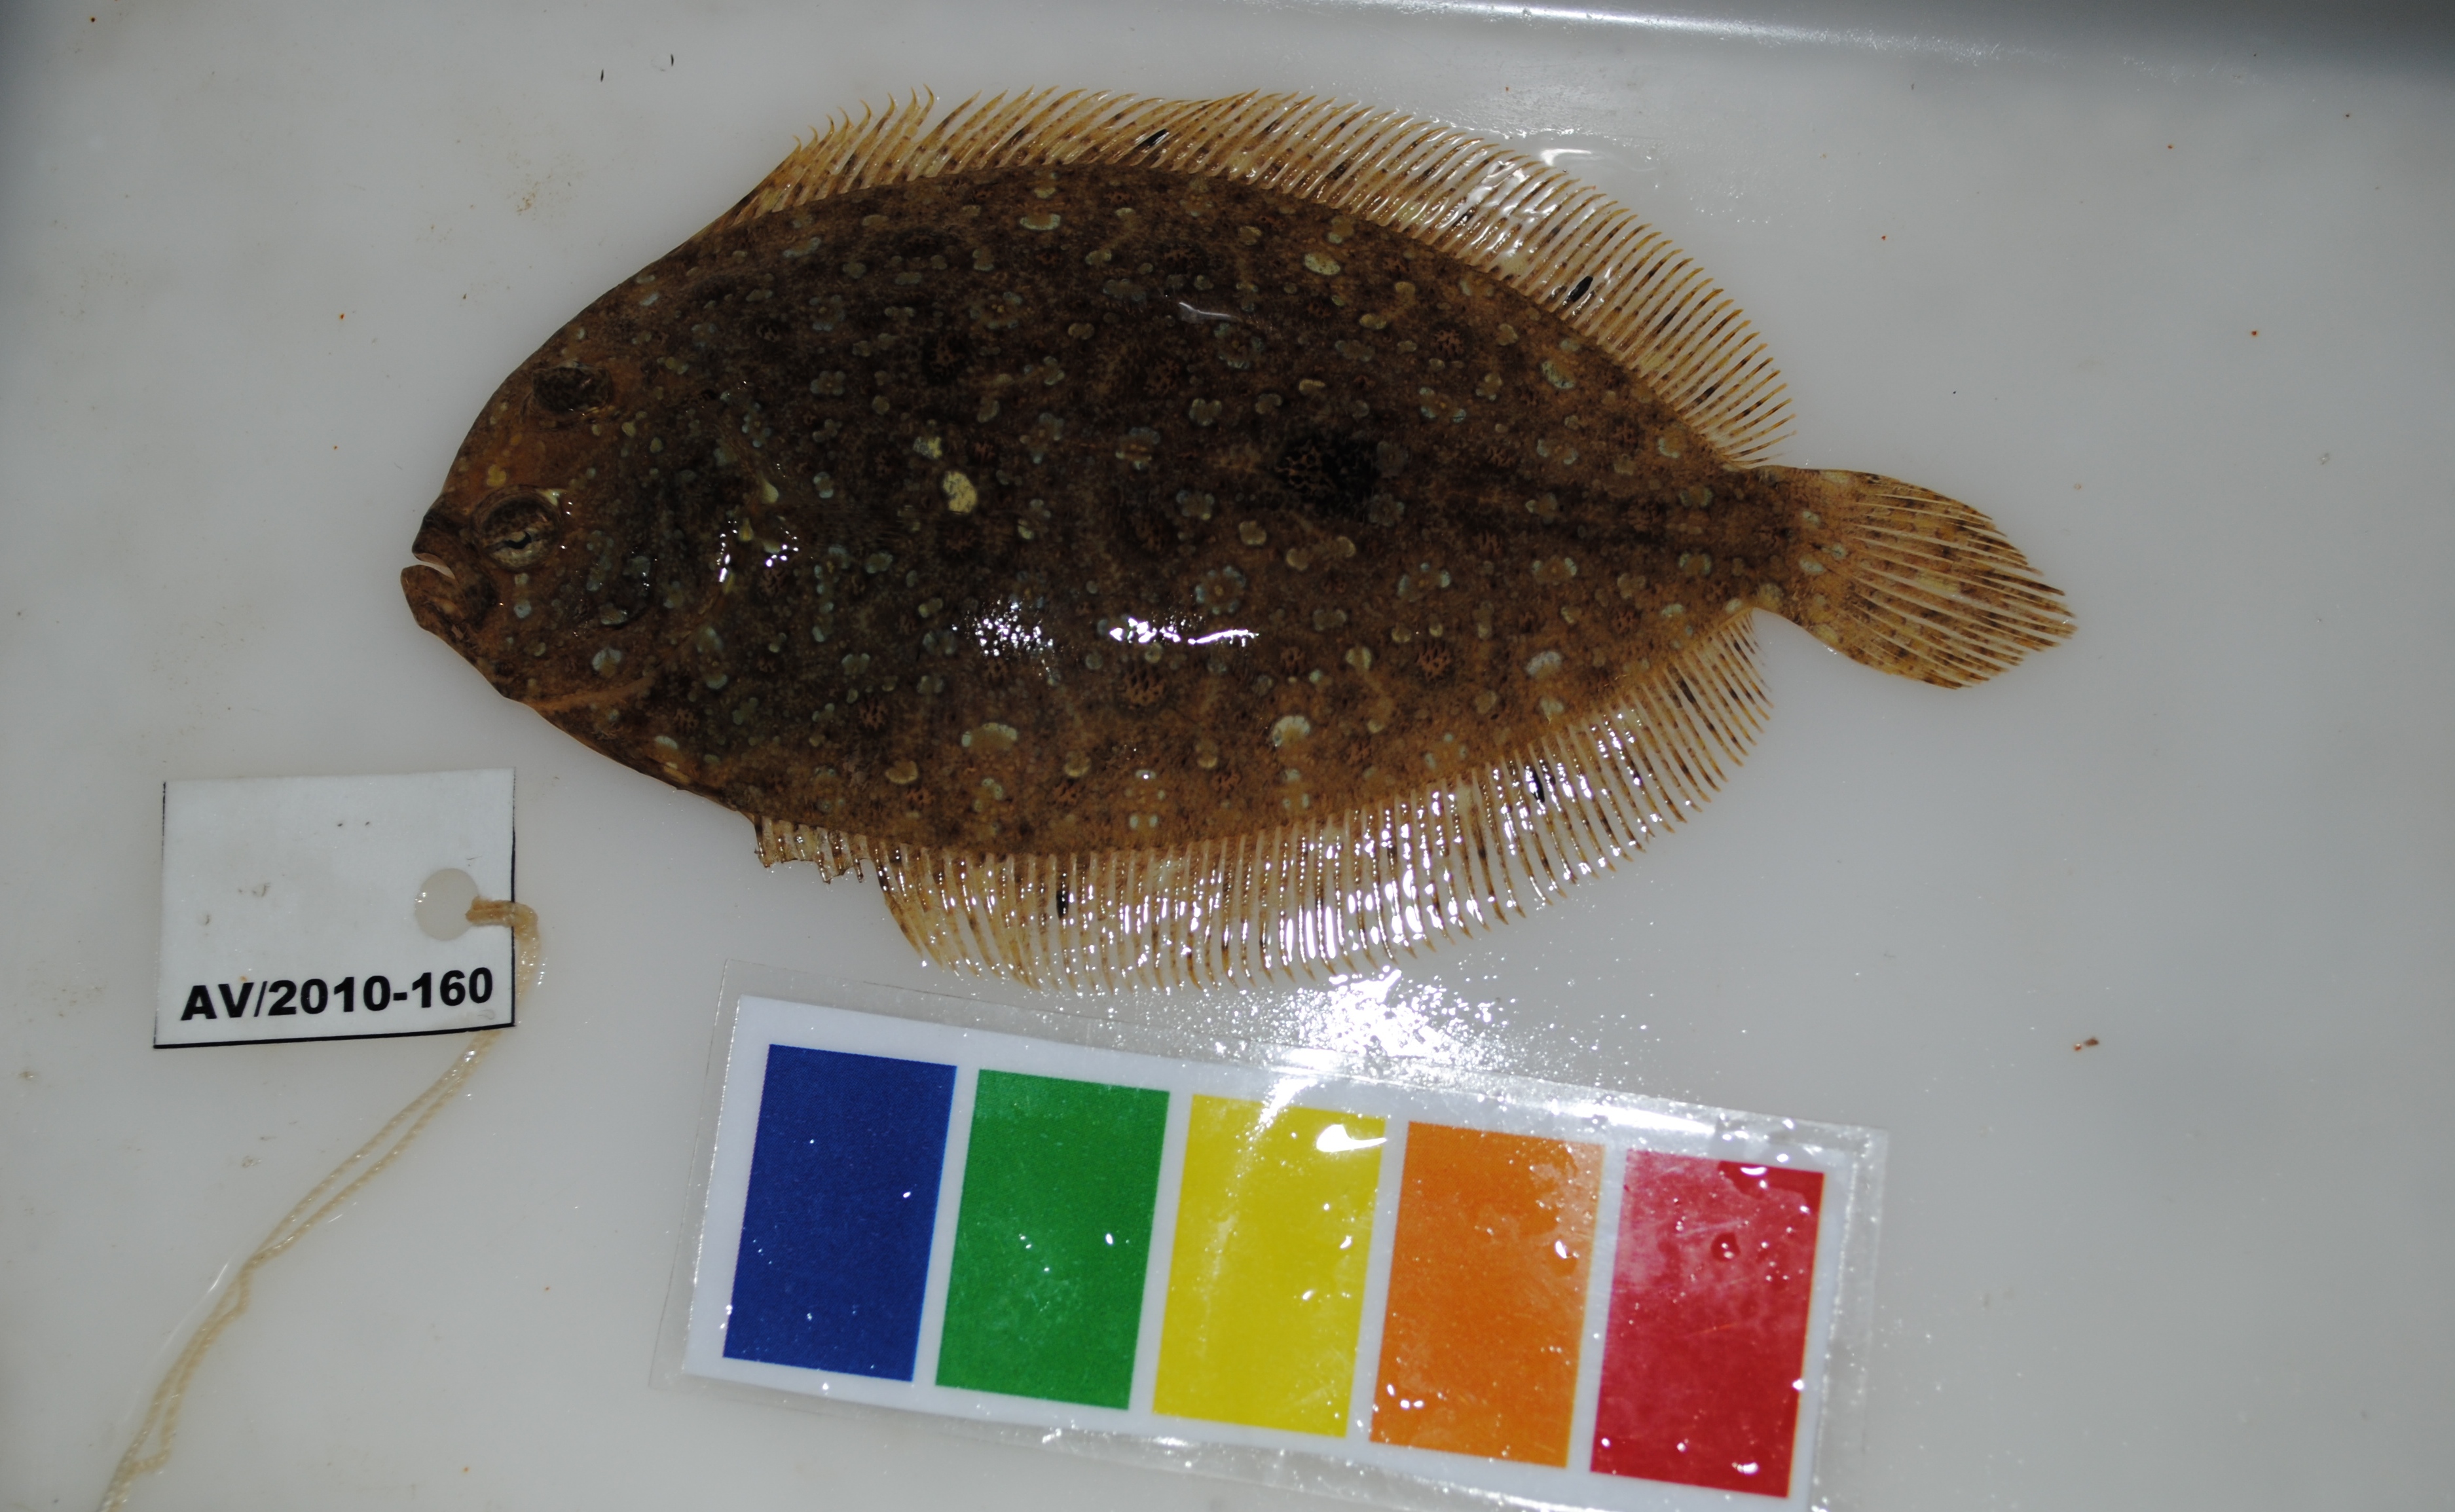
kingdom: Animalia
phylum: Chordata
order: Pleuronectiformes
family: Paralichthyidae
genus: Pseudorhombus
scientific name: Pseudorhombus
